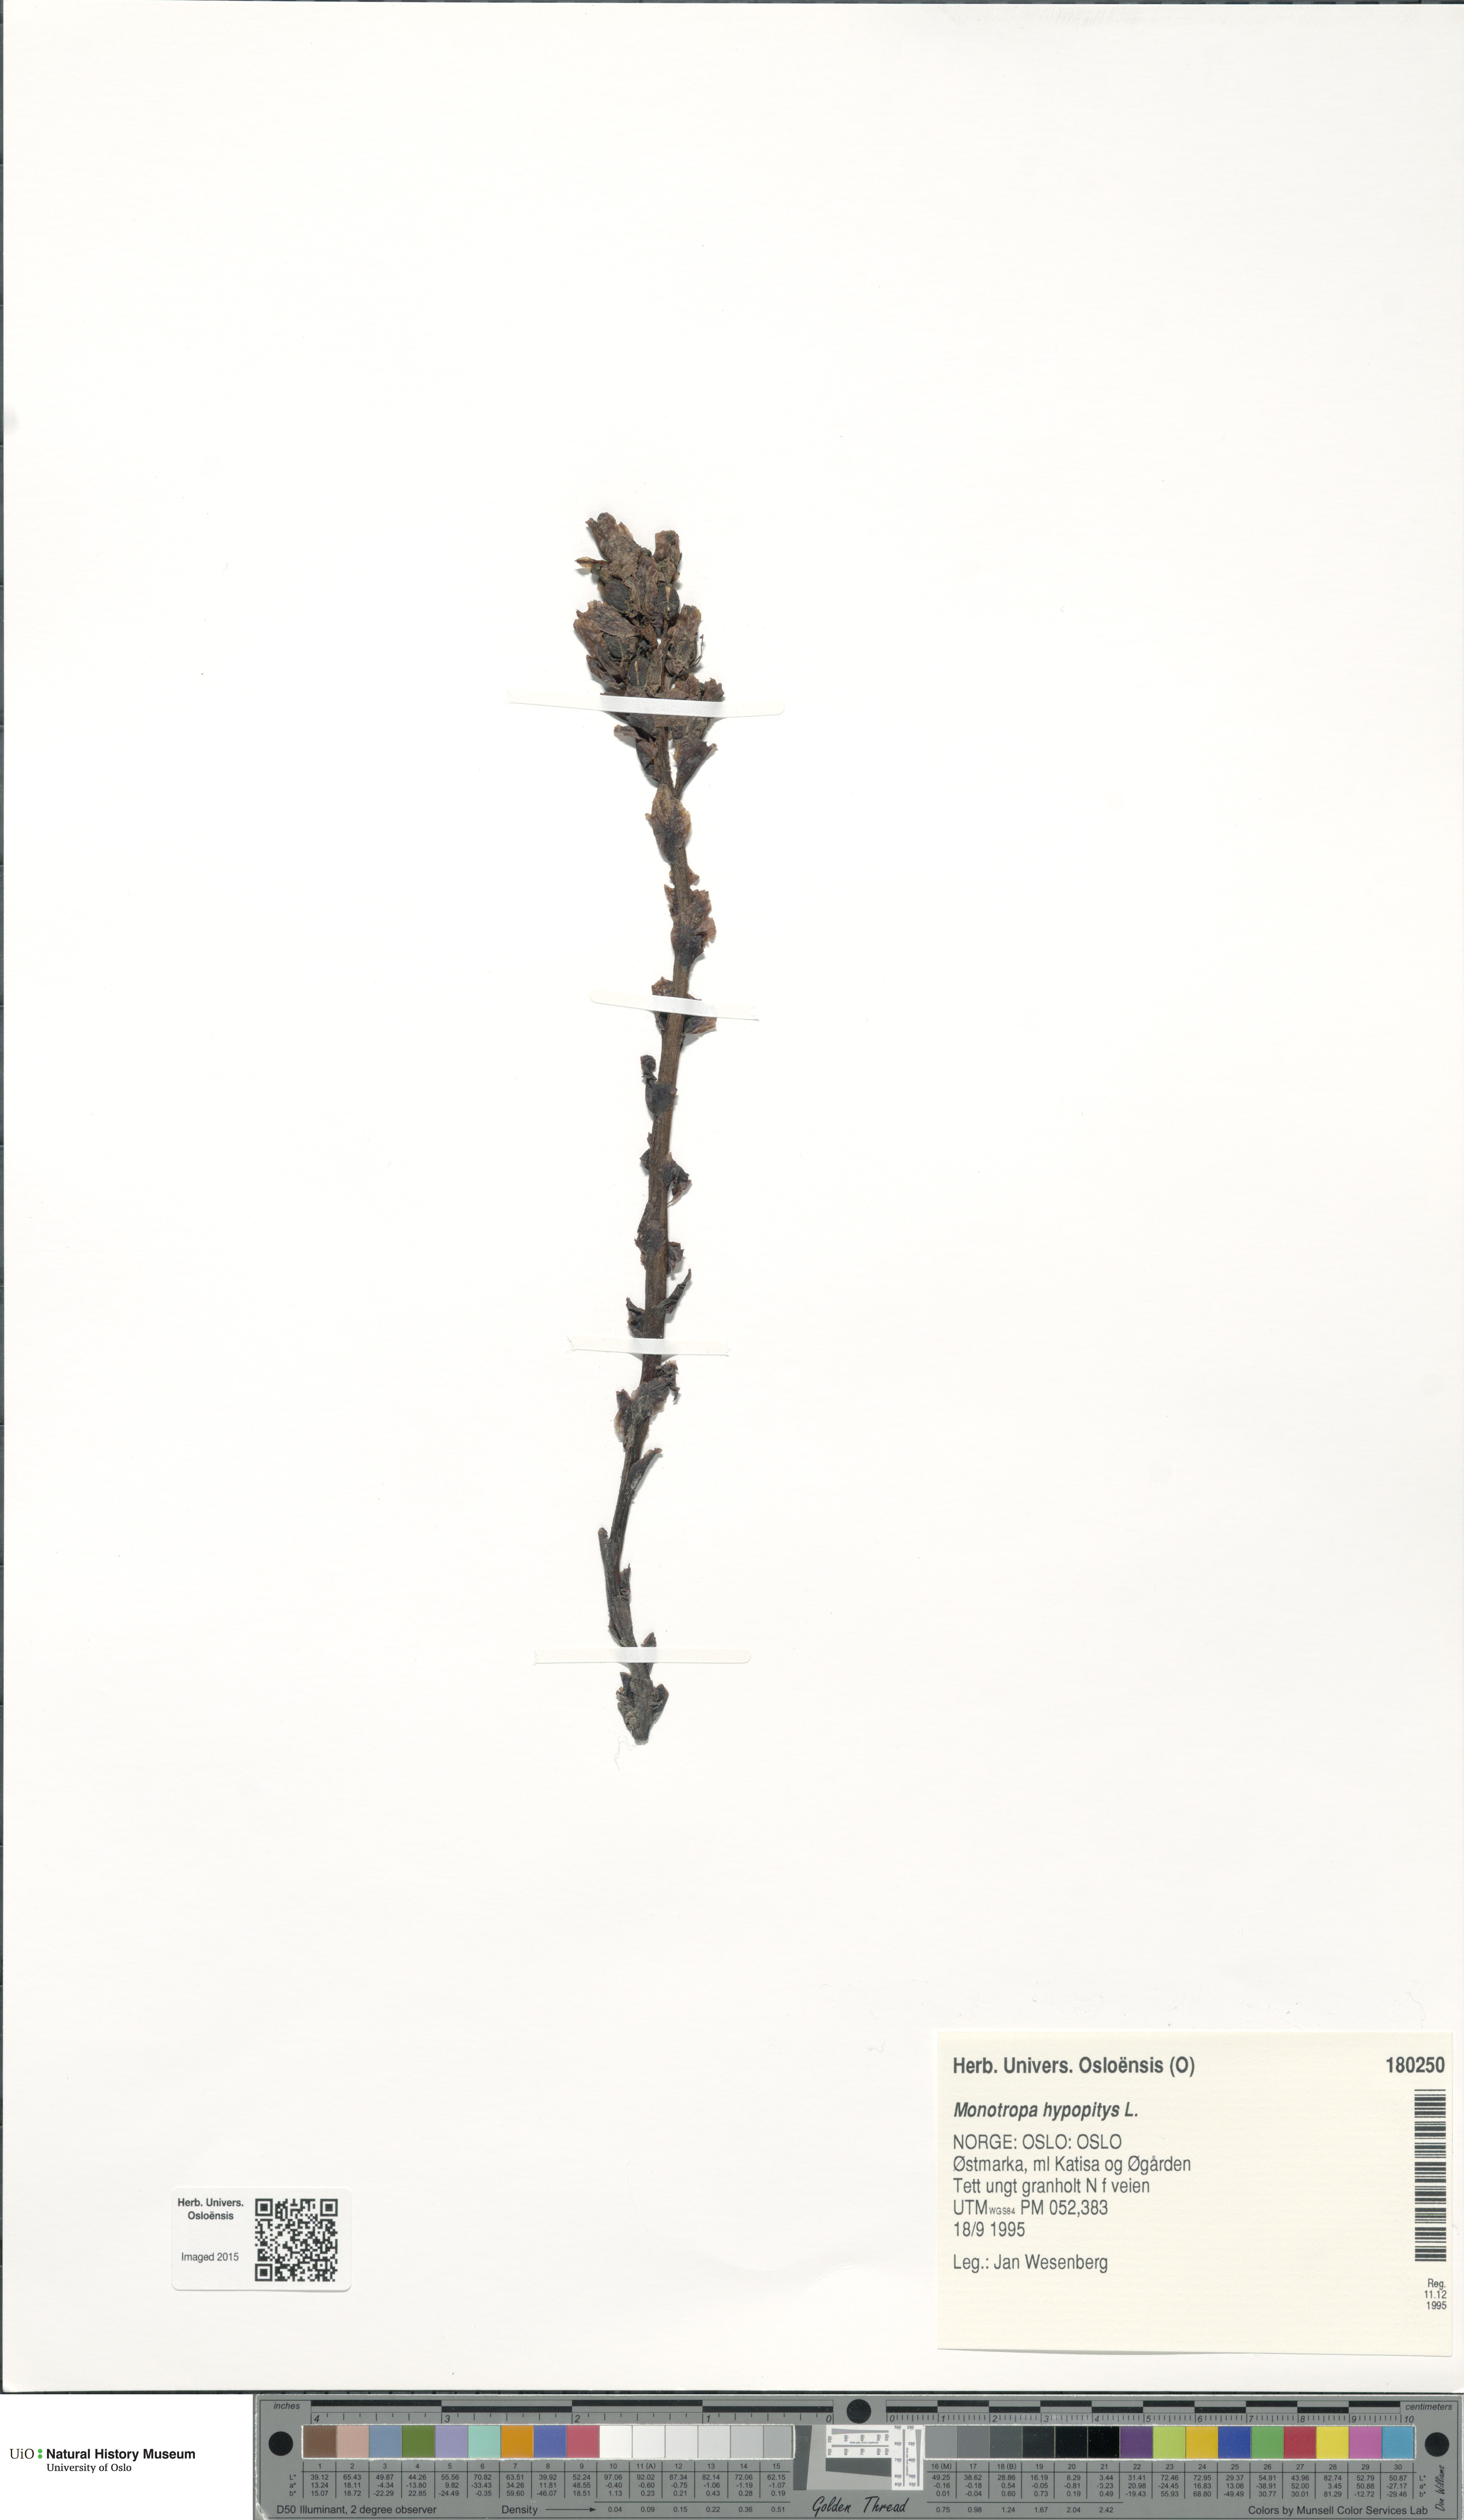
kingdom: Plantae
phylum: Tracheophyta
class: Magnoliopsida
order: Ericales
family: Ericaceae
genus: Hypopitys
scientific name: Hypopitys monotropa
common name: Yellow bird's-nest
